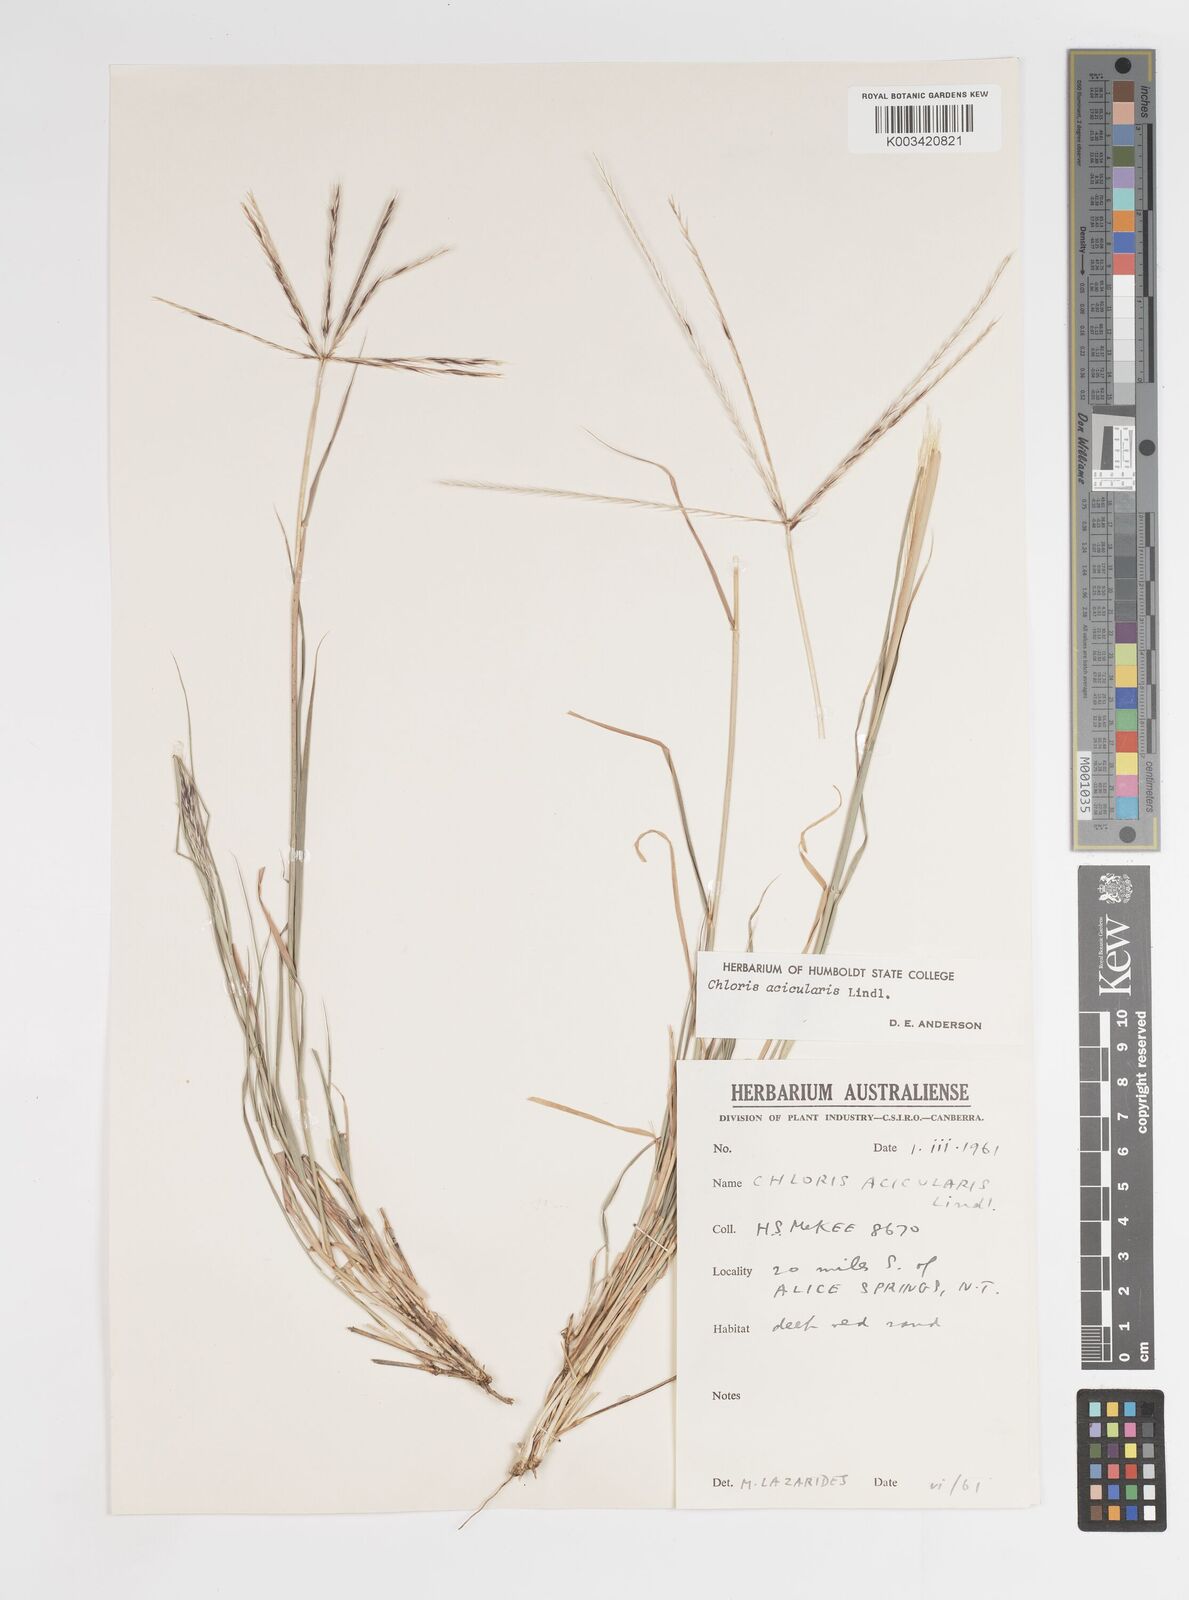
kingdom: Plantae
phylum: Tracheophyta
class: Liliopsida
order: Poales
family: Poaceae
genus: Enteropogon
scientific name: Enteropogon acicularis
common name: Curly windmill grass
